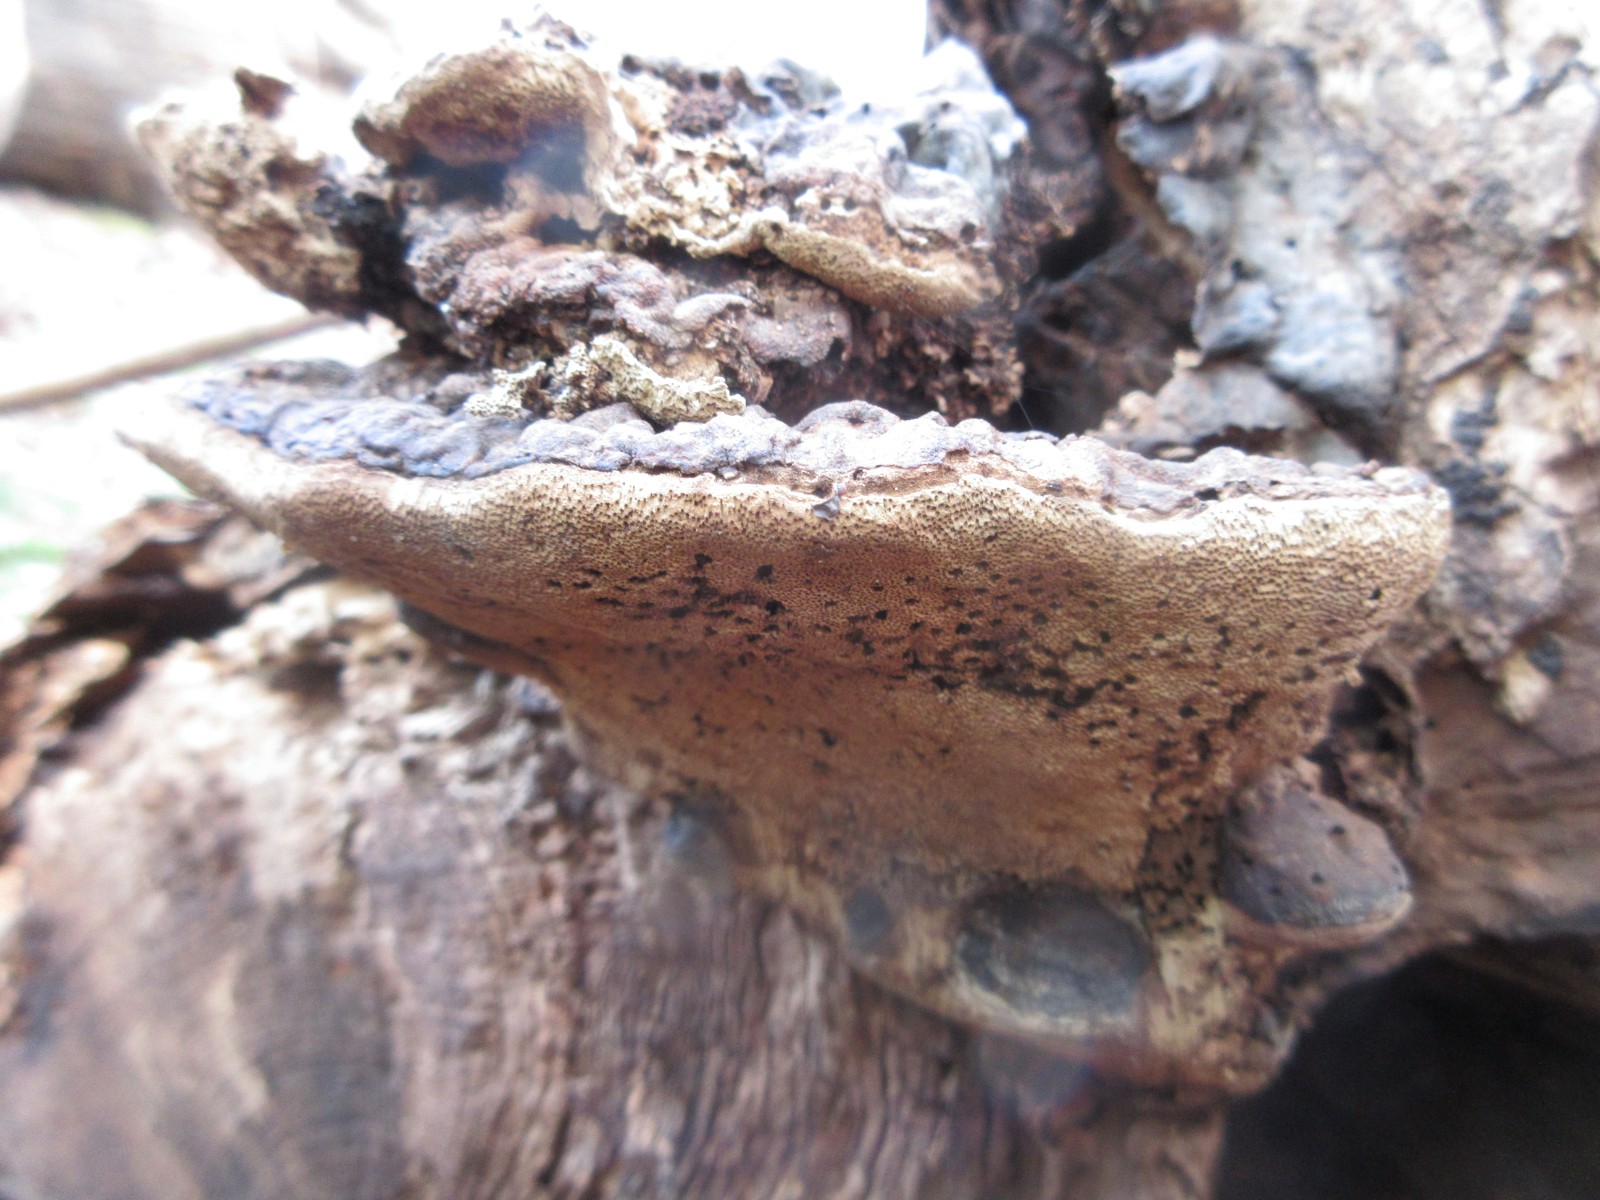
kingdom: Fungi
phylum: Basidiomycota
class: Agaricomycetes
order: Polyporales
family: Ischnodermataceae
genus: Ischnoderma
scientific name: Ischnoderma resinosum
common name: løv-tjæreporesvamp
